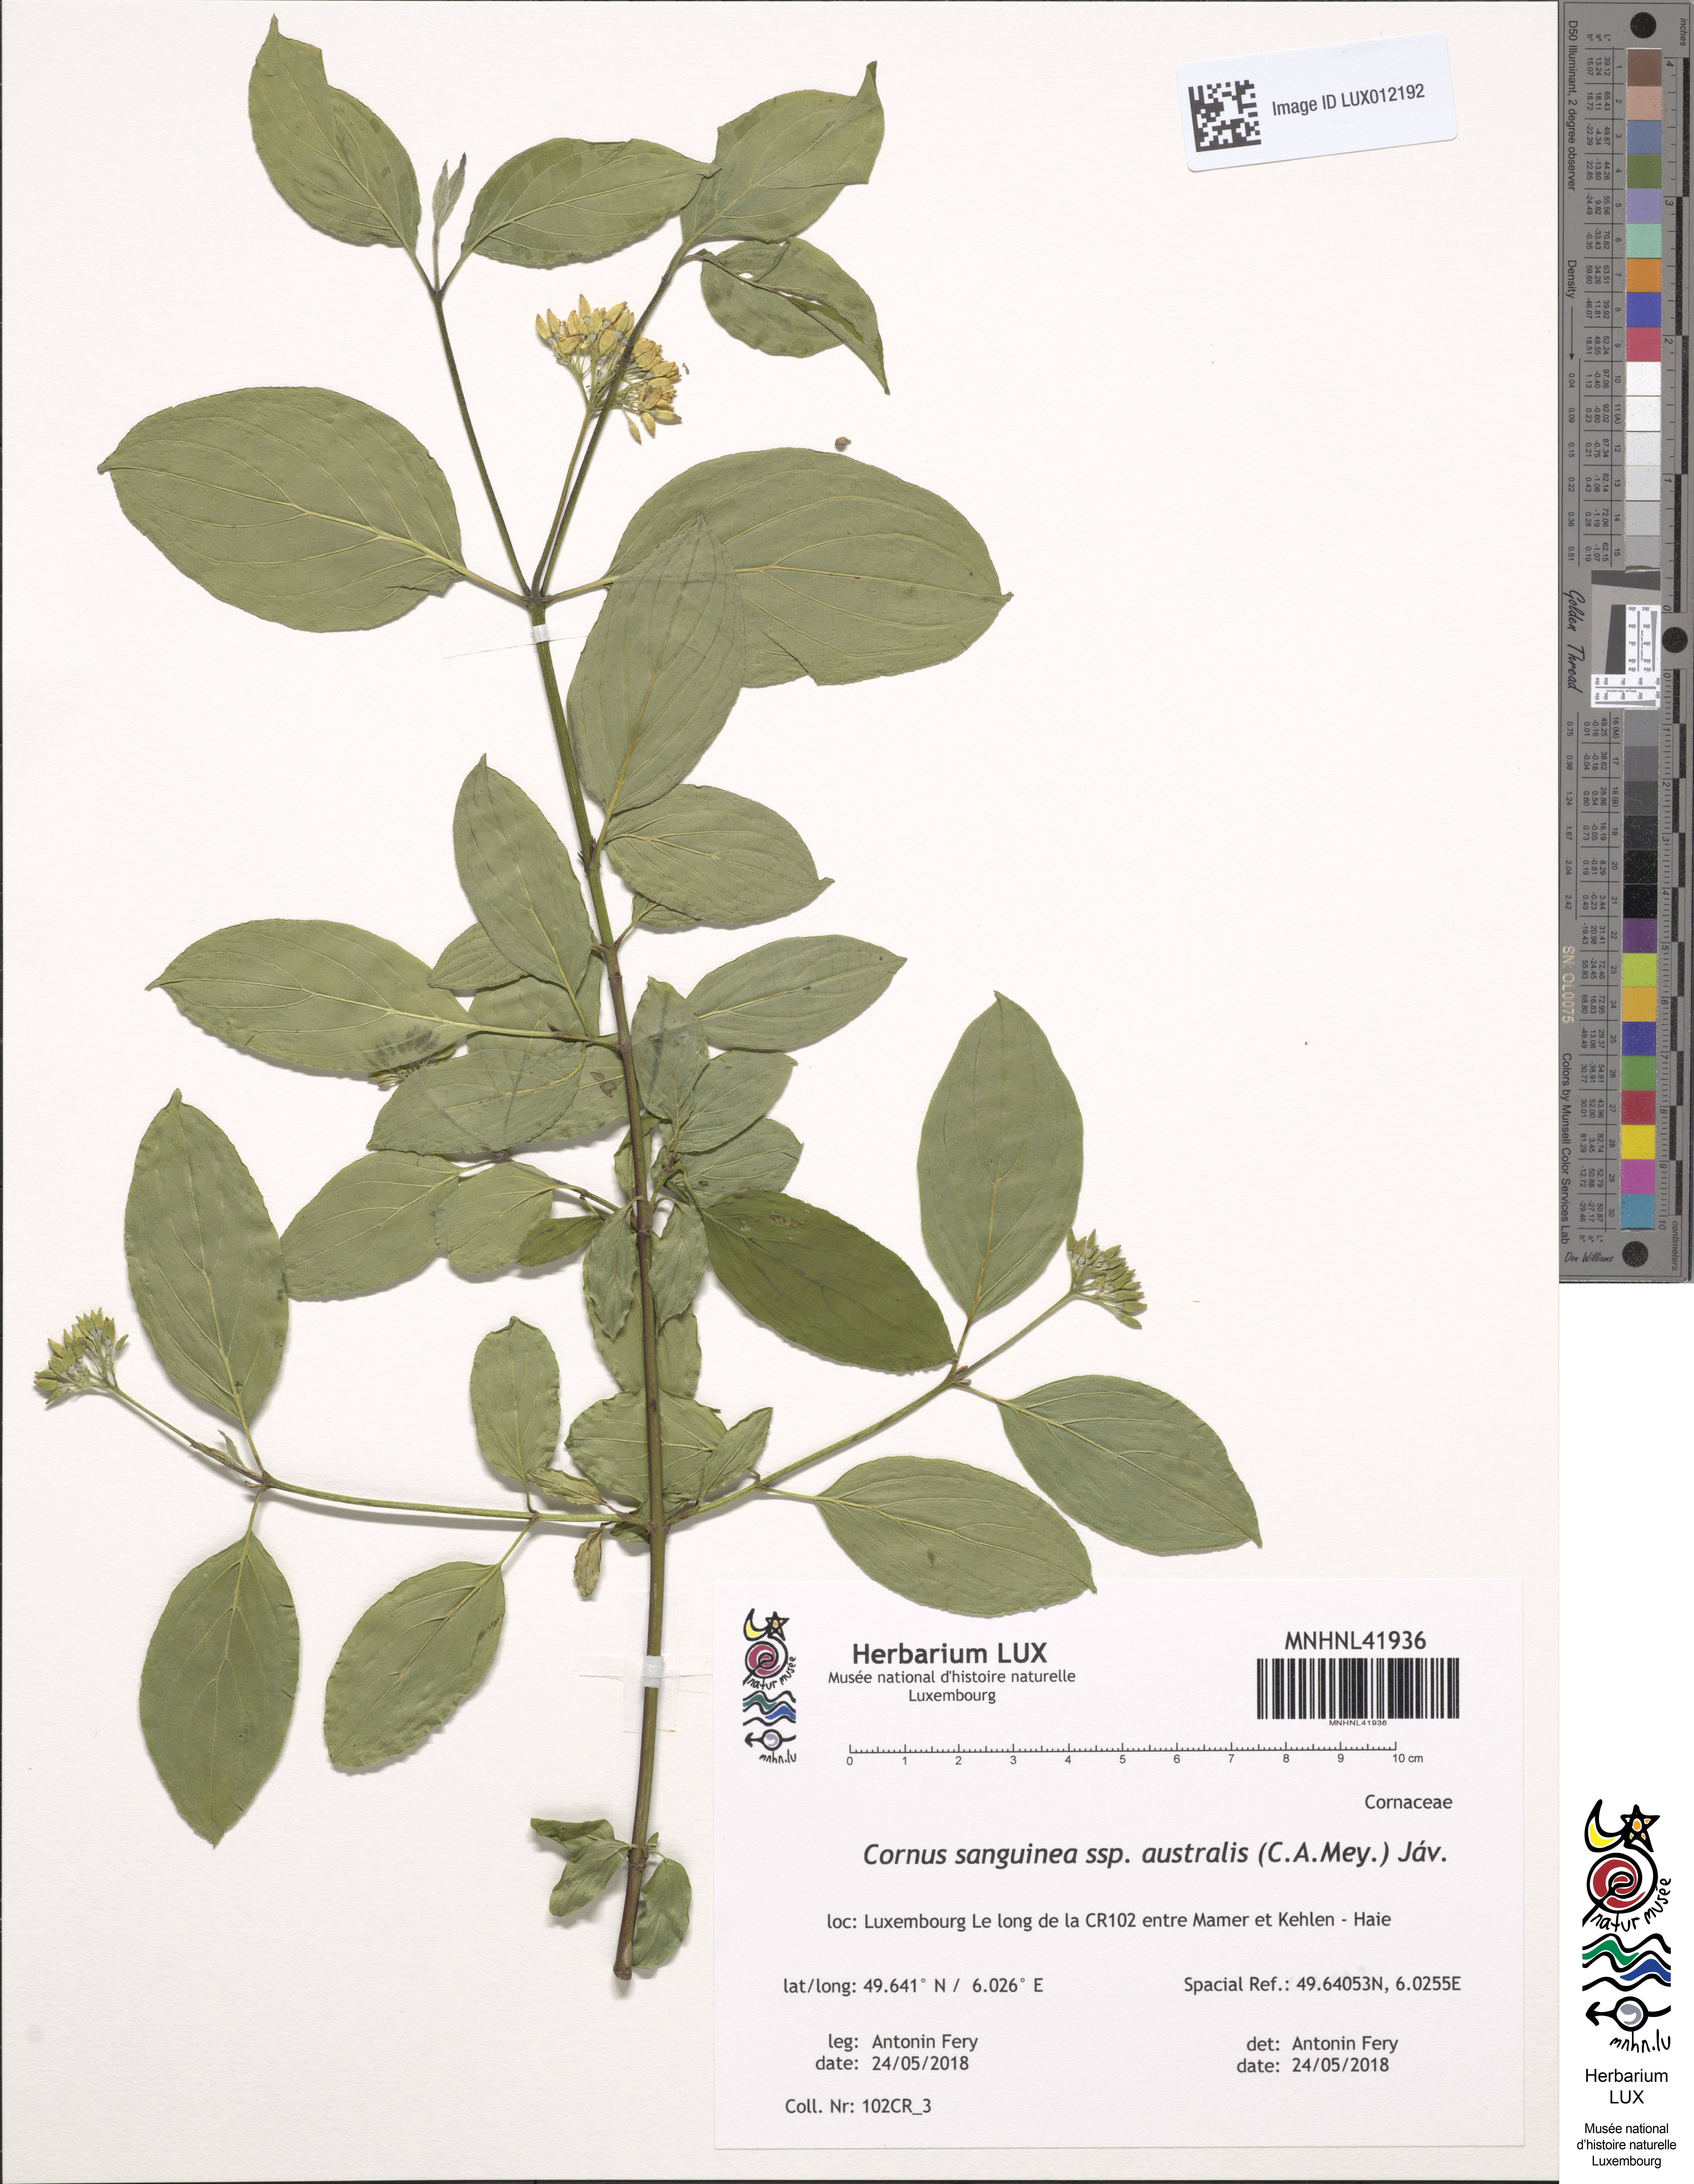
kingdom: Plantae
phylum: Tracheophyta
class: Magnoliopsida
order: Cornales
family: Cornaceae
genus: Cornus
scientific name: Cornus sanguinea
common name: Dogwood
